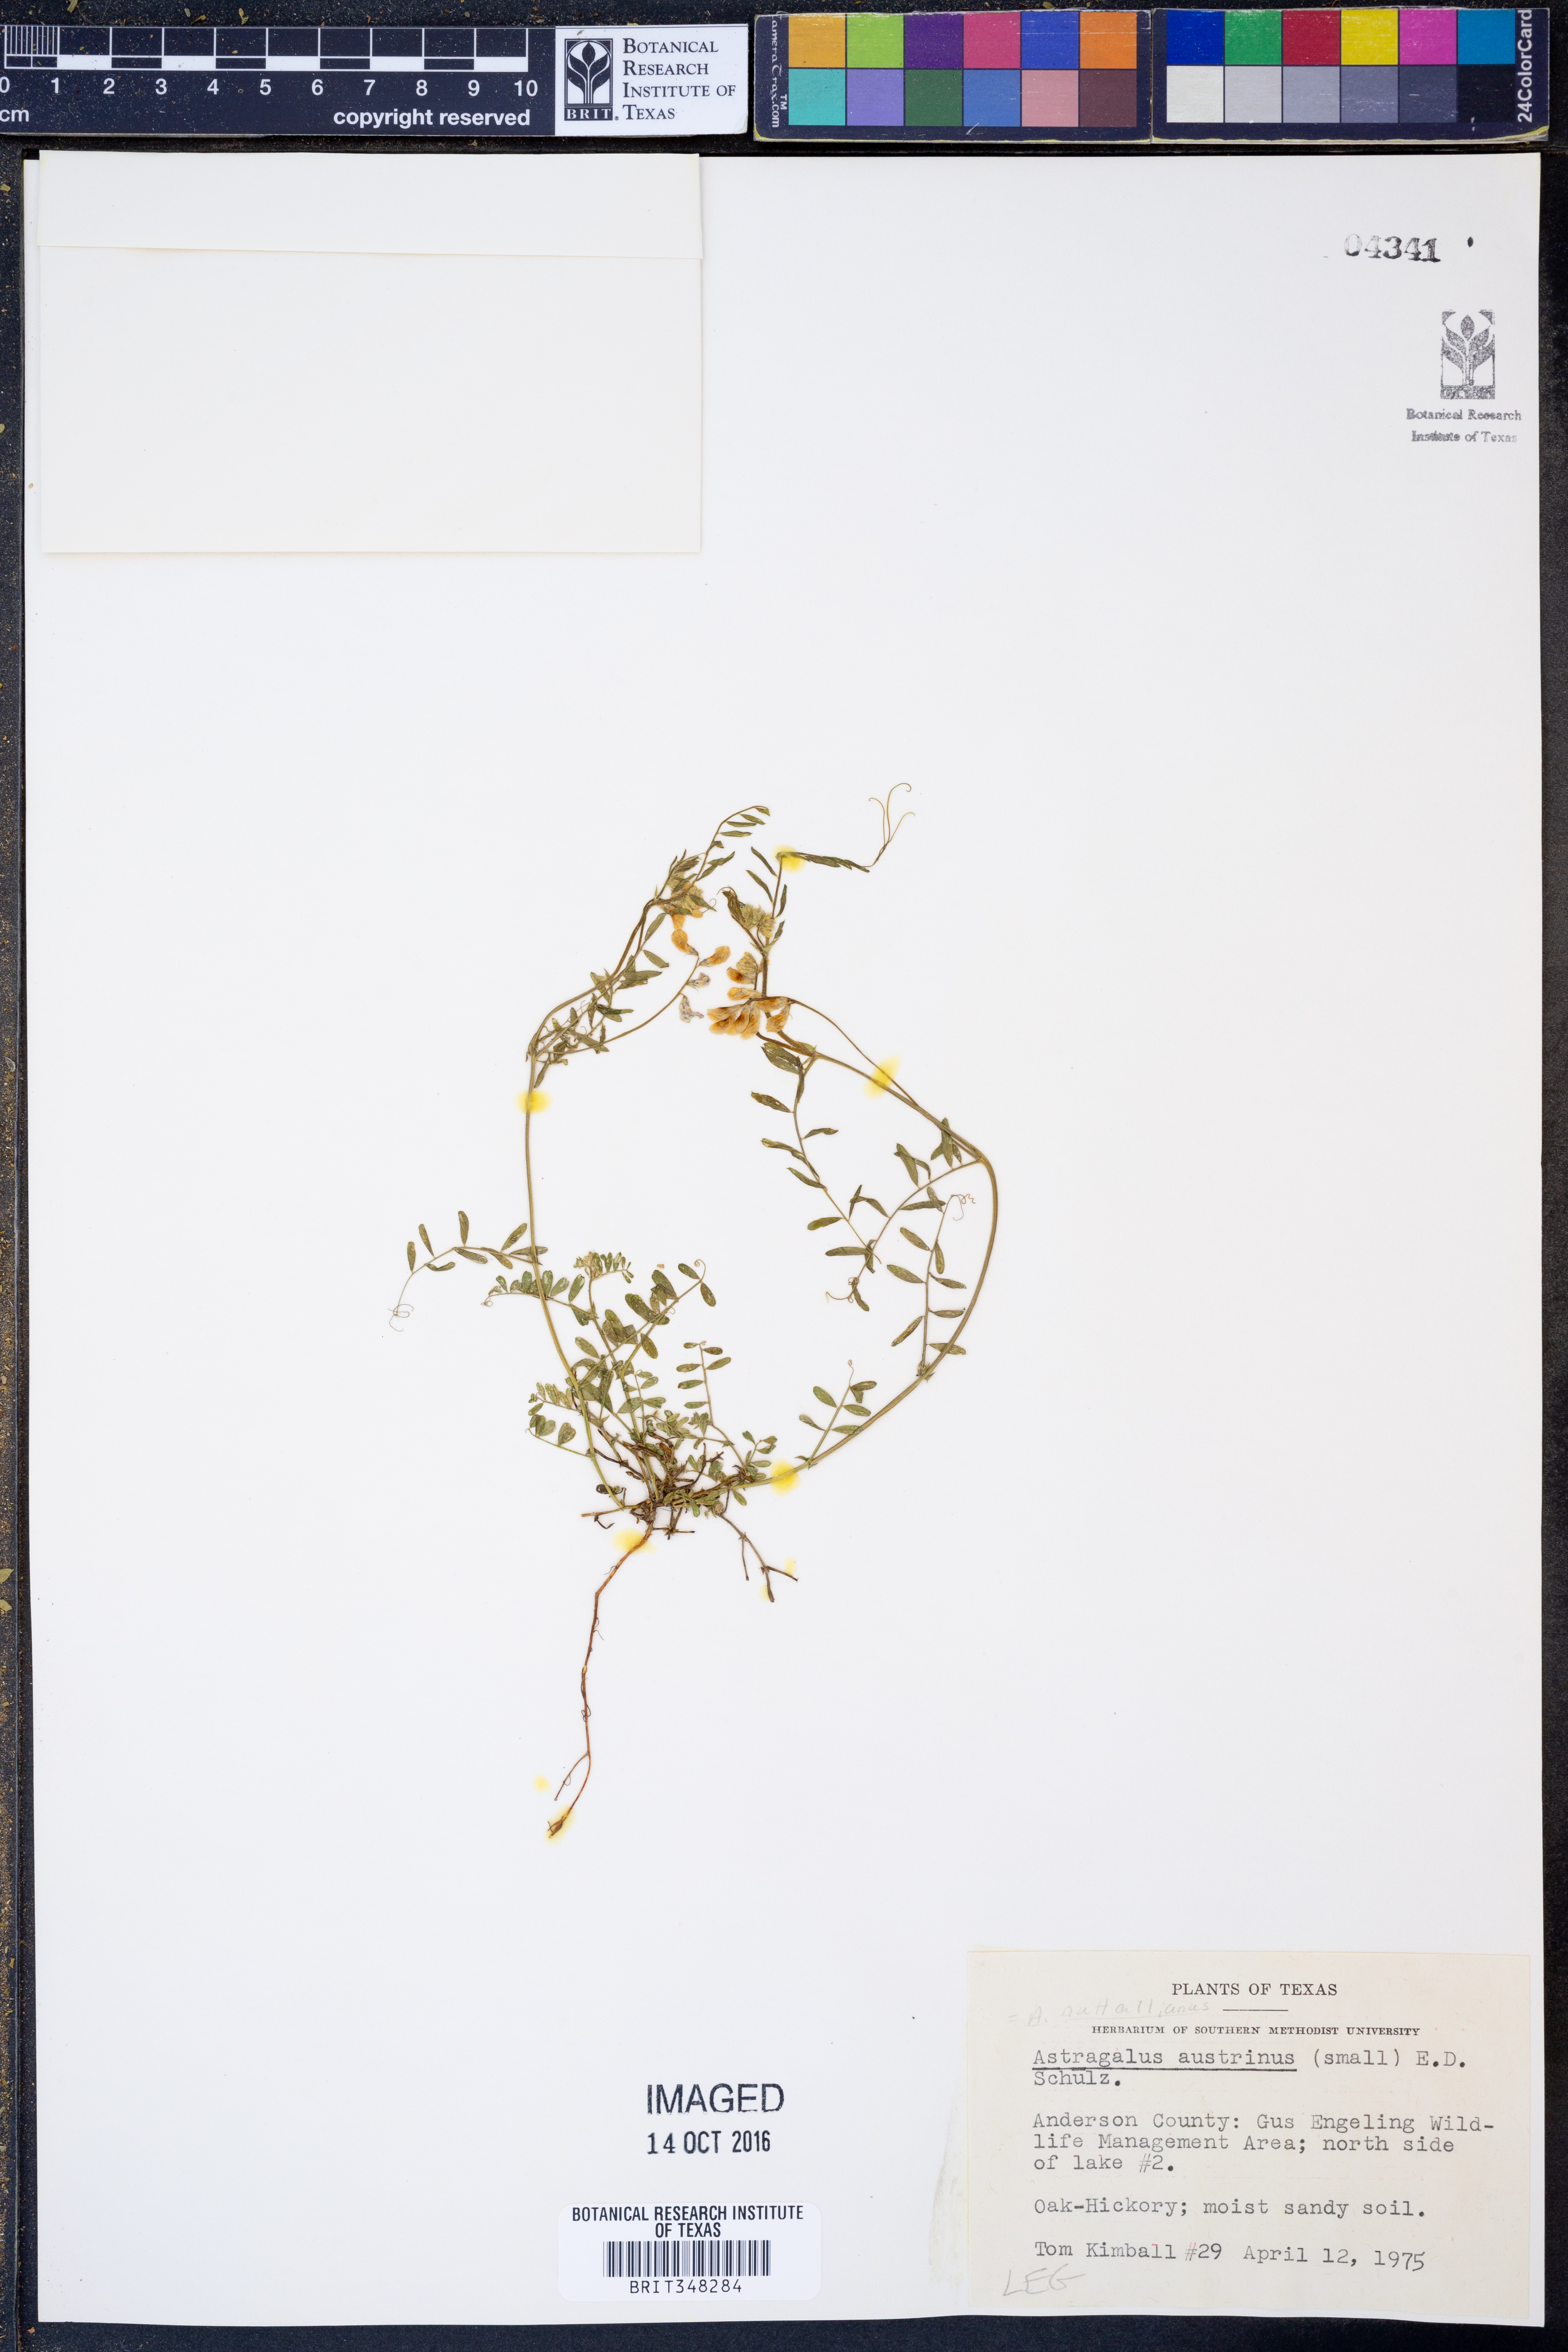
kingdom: Plantae
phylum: Tracheophyta
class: Magnoliopsida
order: Fabales
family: Fabaceae
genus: Astragalus
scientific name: Astragalus nuttallianus
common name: Smallflowered milkvetch
